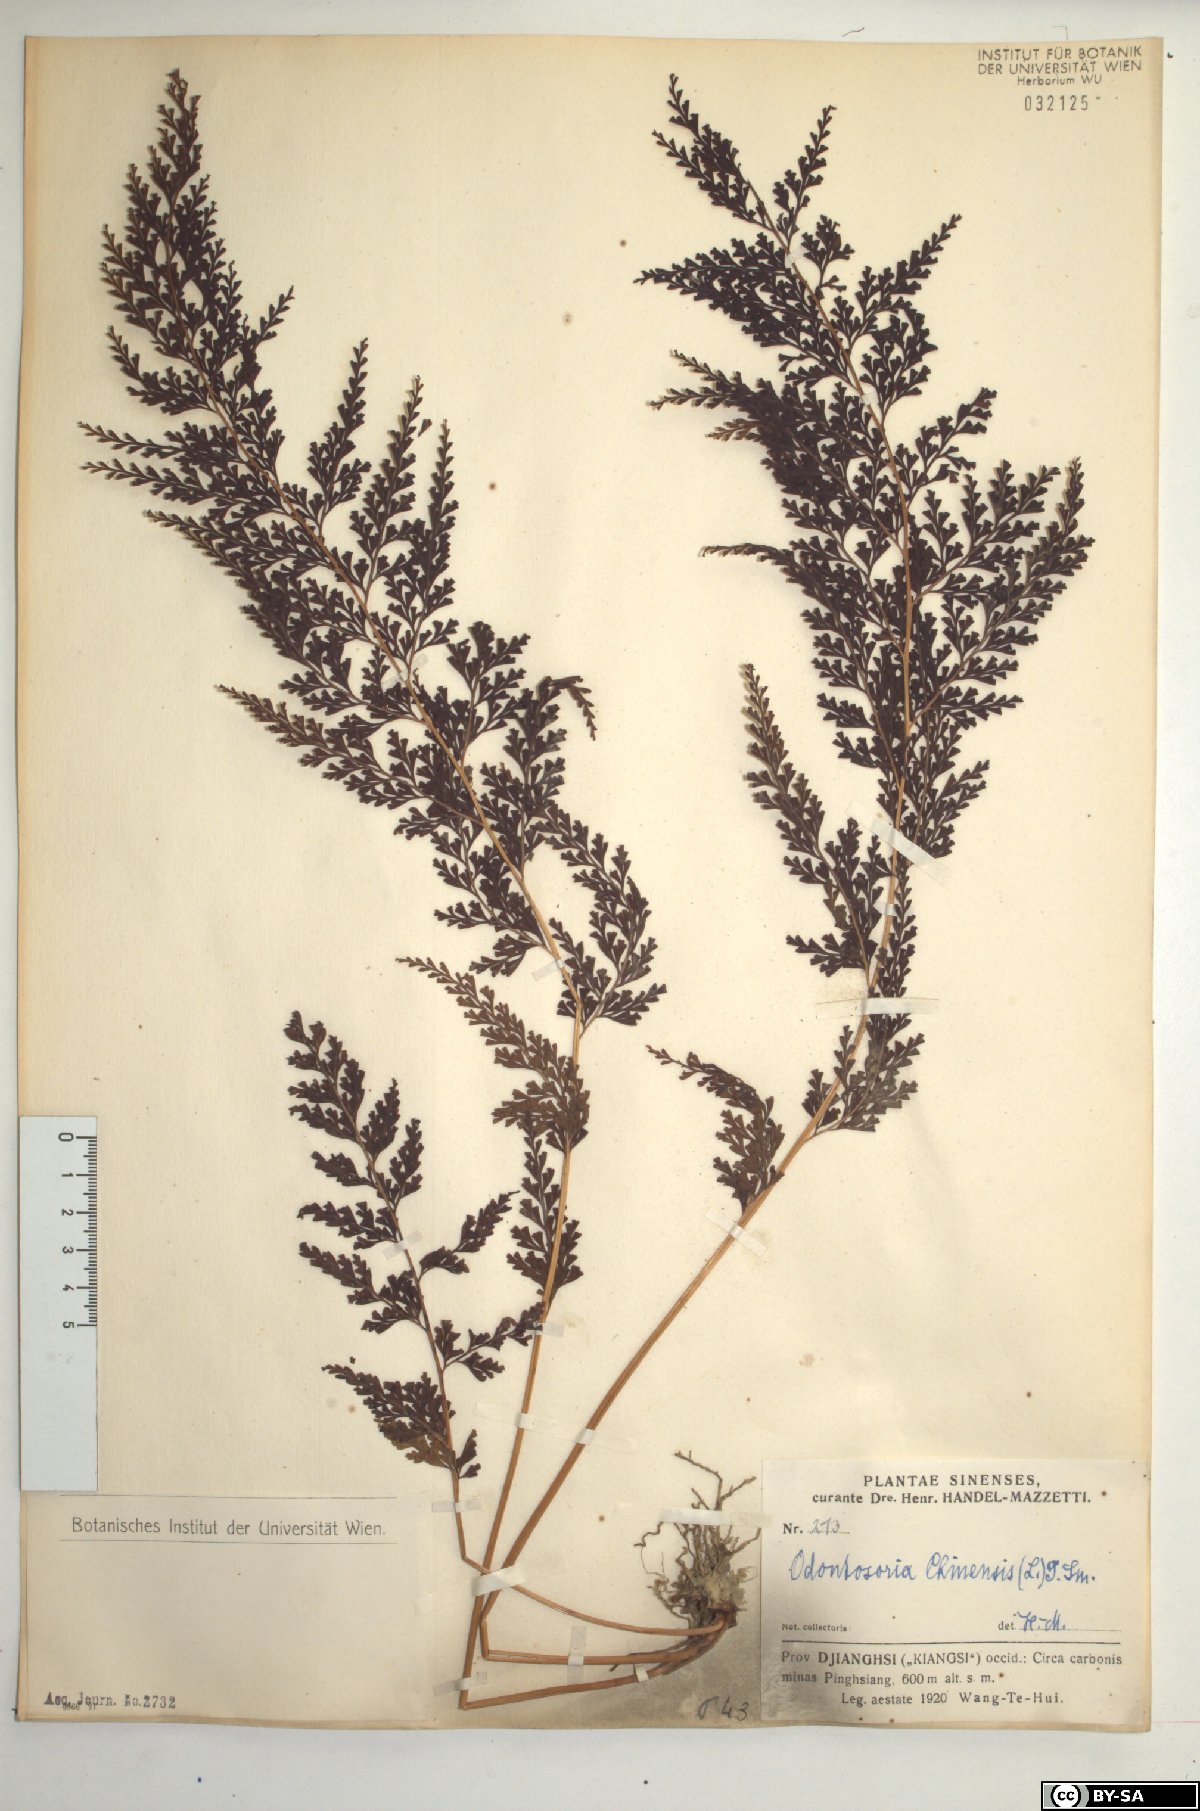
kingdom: Plantae
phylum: Tracheophyta
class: Polypodiopsida
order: Polypodiales
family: Lindsaeaceae
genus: Odontosoria
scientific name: Odontosoria chinensis
